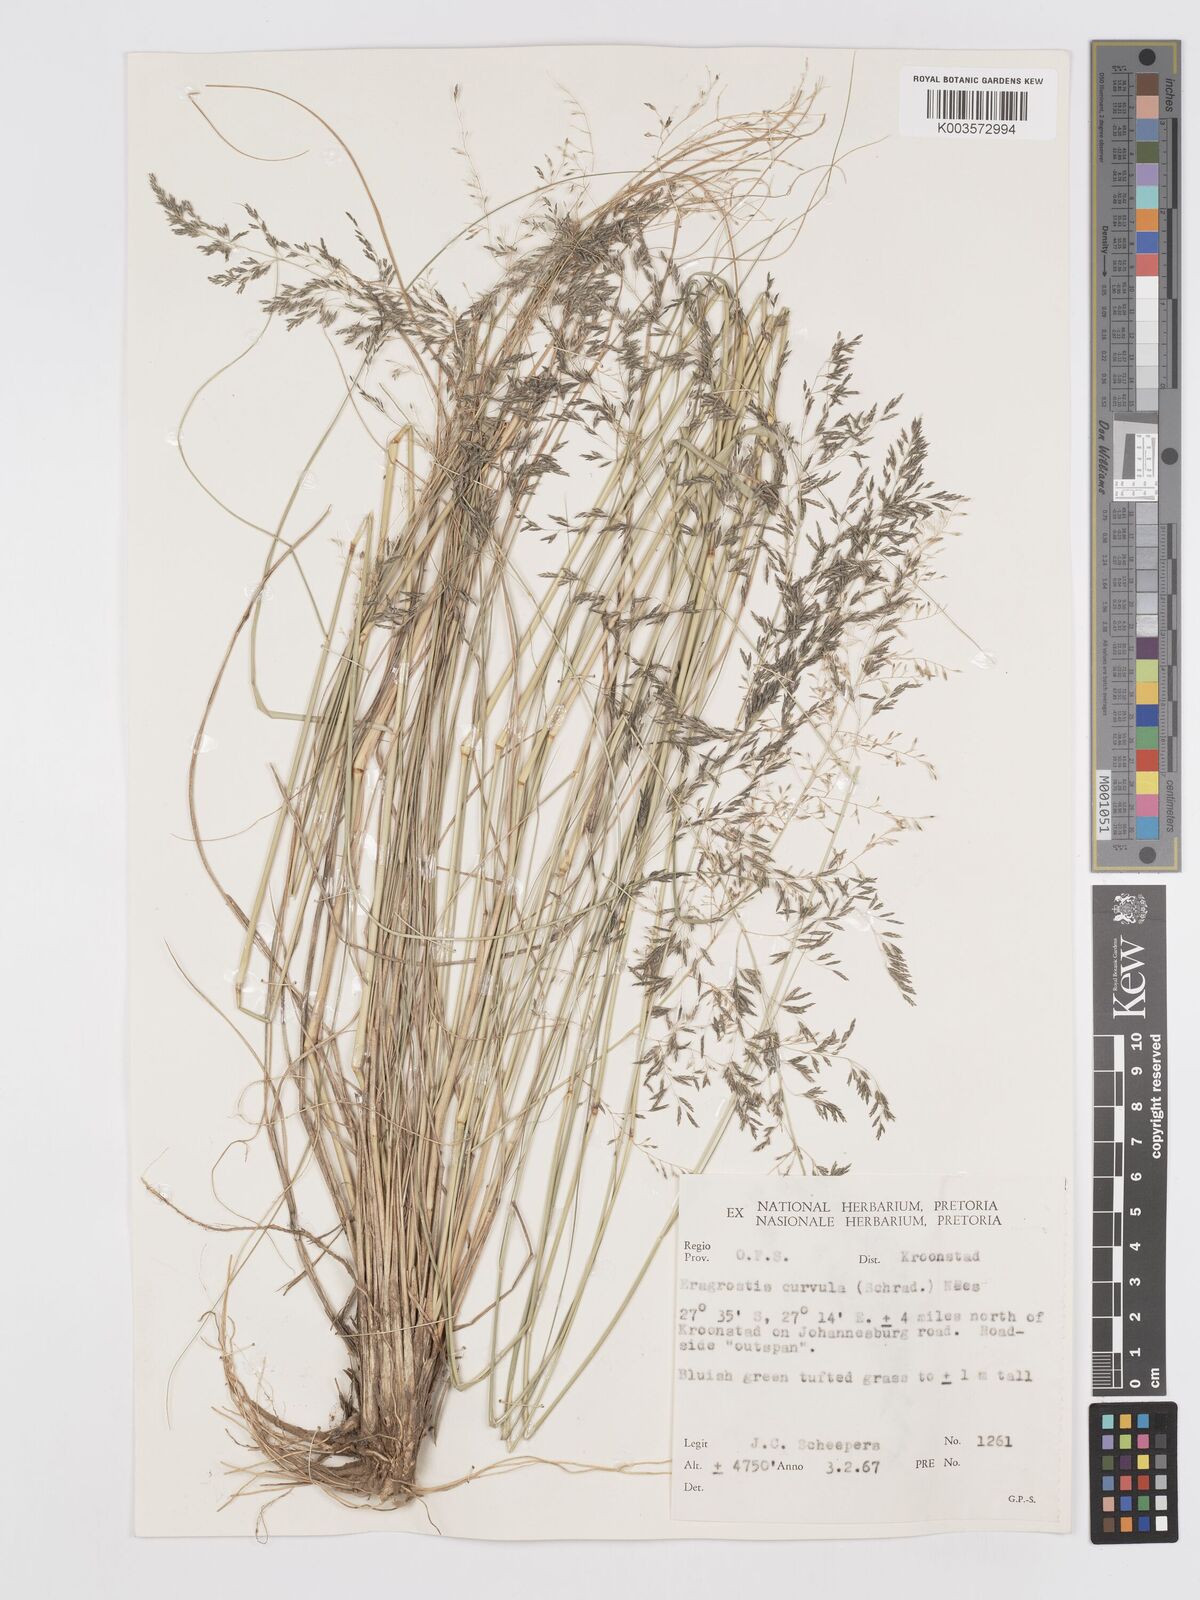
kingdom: Plantae
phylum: Tracheophyta
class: Liliopsida
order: Poales
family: Poaceae
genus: Eragrostis
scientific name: Eragrostis curvula
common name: African love-grass
